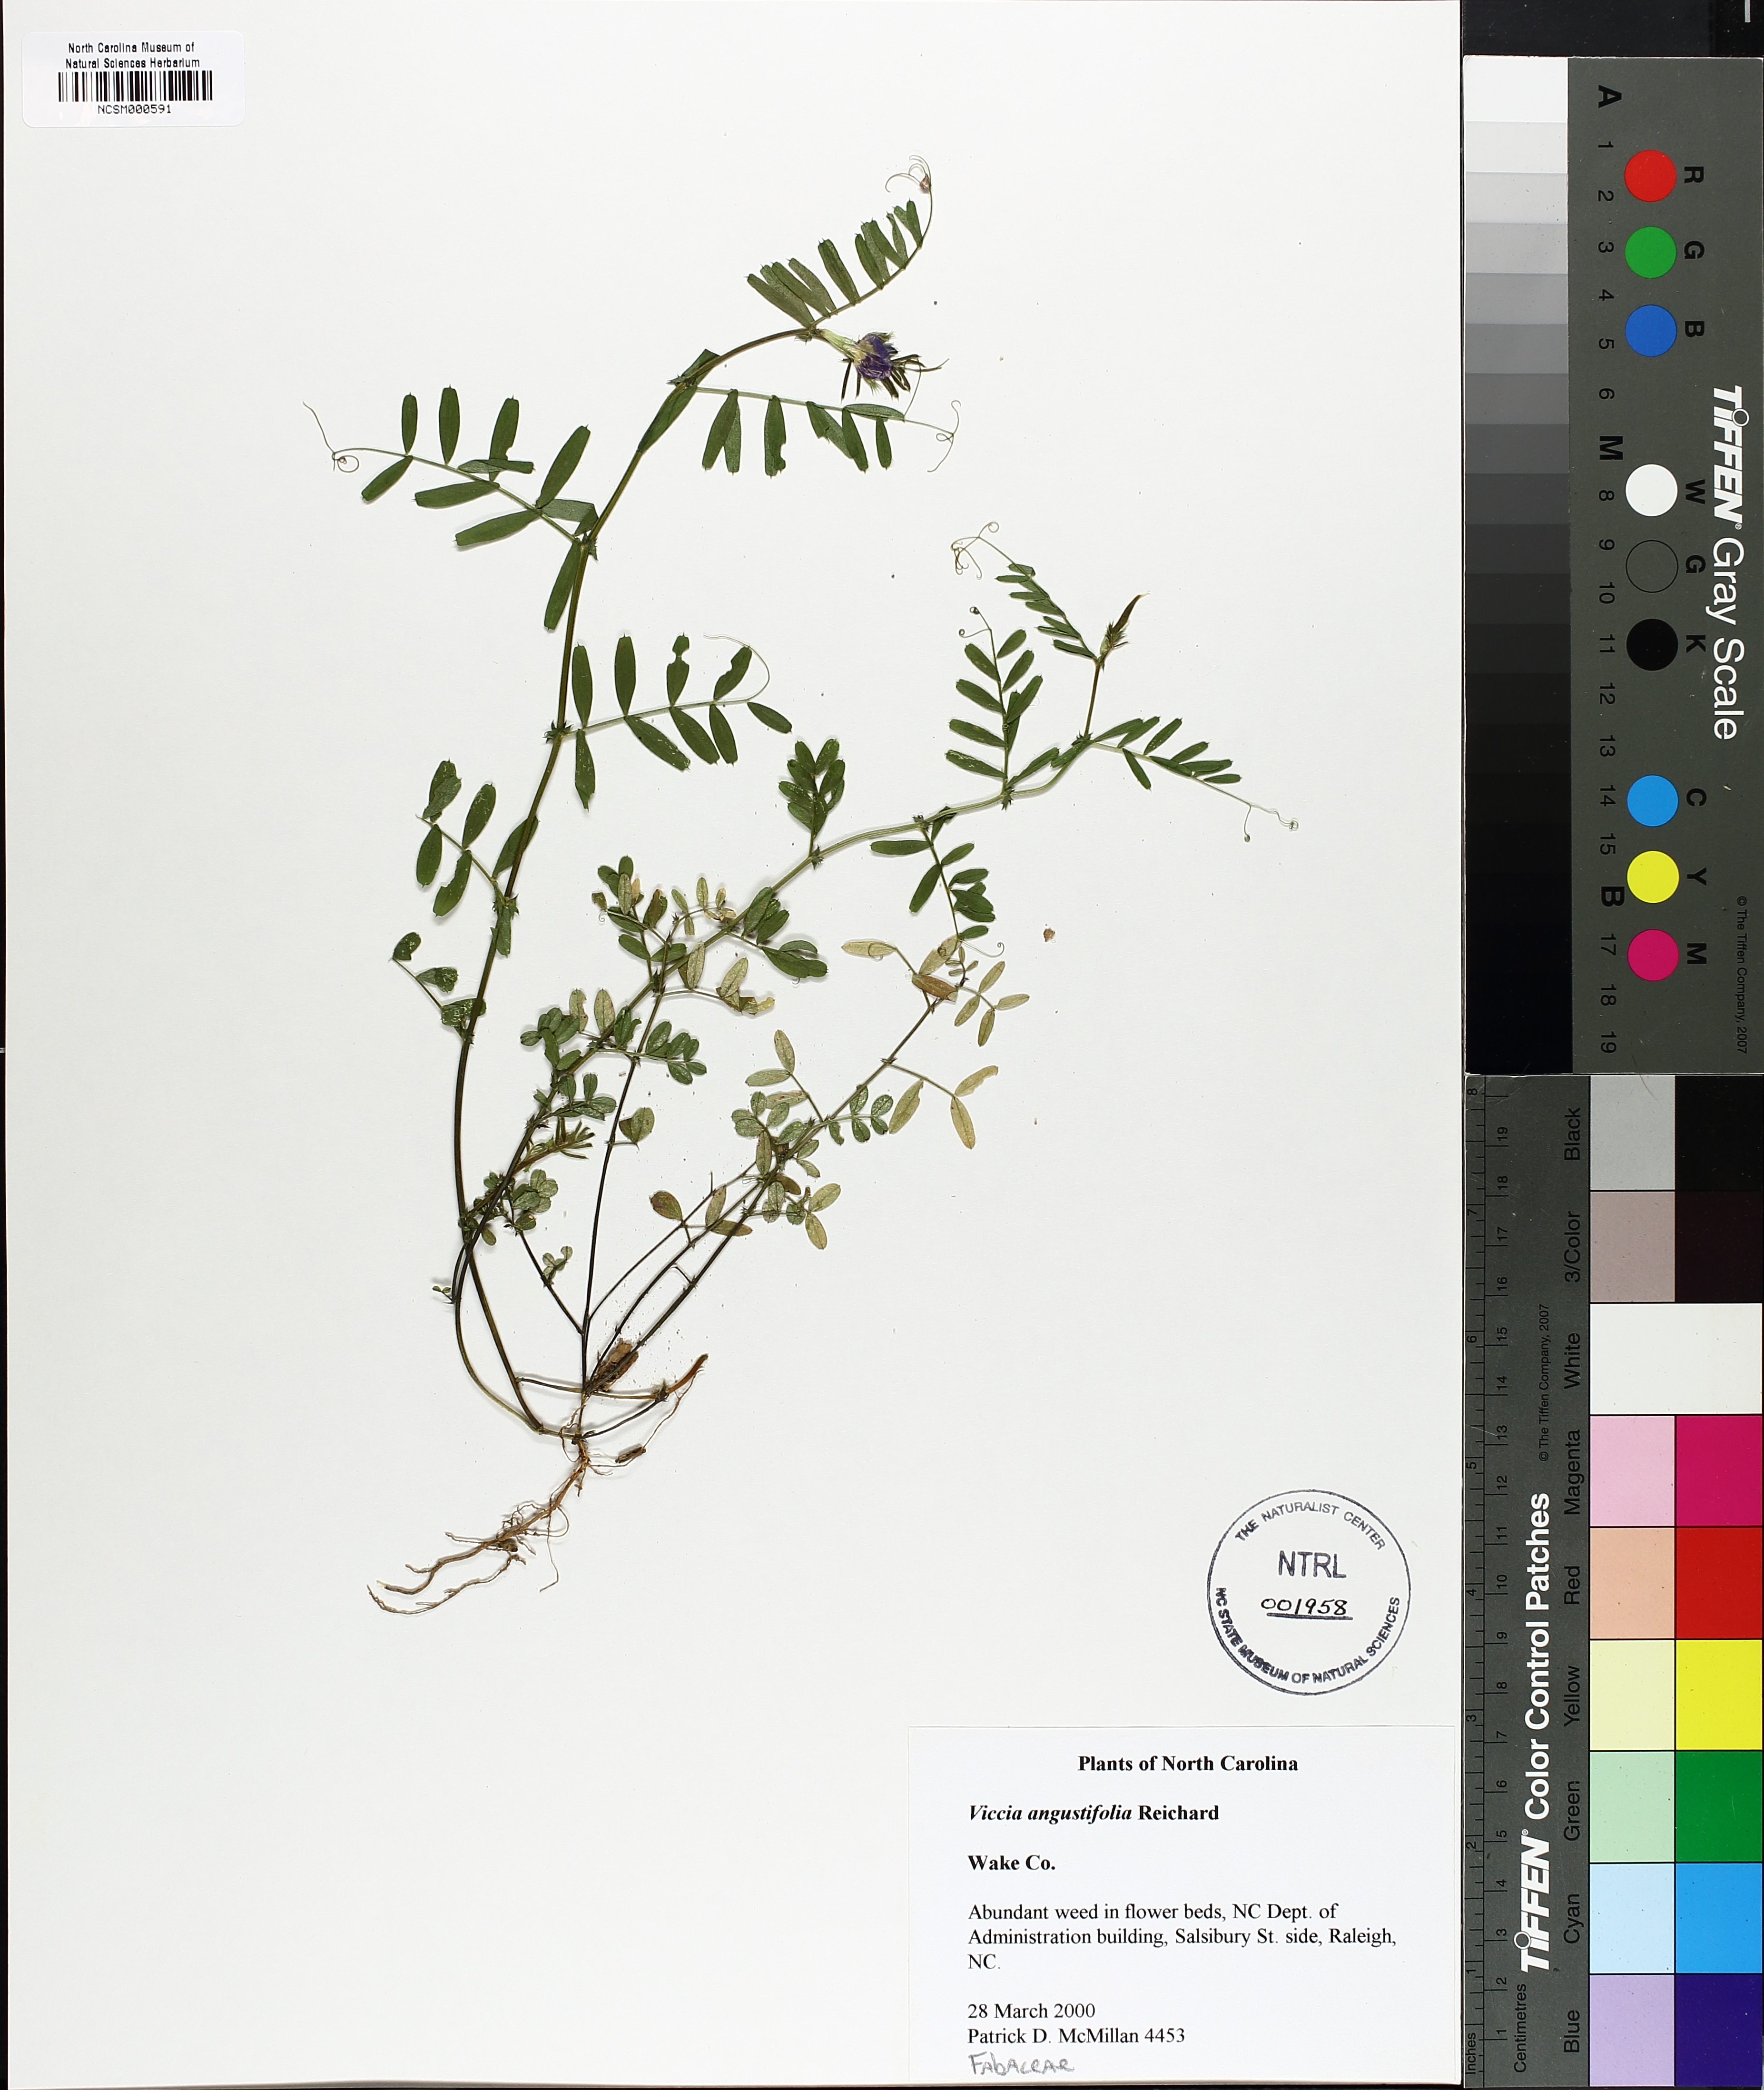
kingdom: Plantae
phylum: Tracheophyta
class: Magnoliopsida
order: Fabales
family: Fabaceae
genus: Vicia
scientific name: Vicia sativa
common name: Garden vetch
